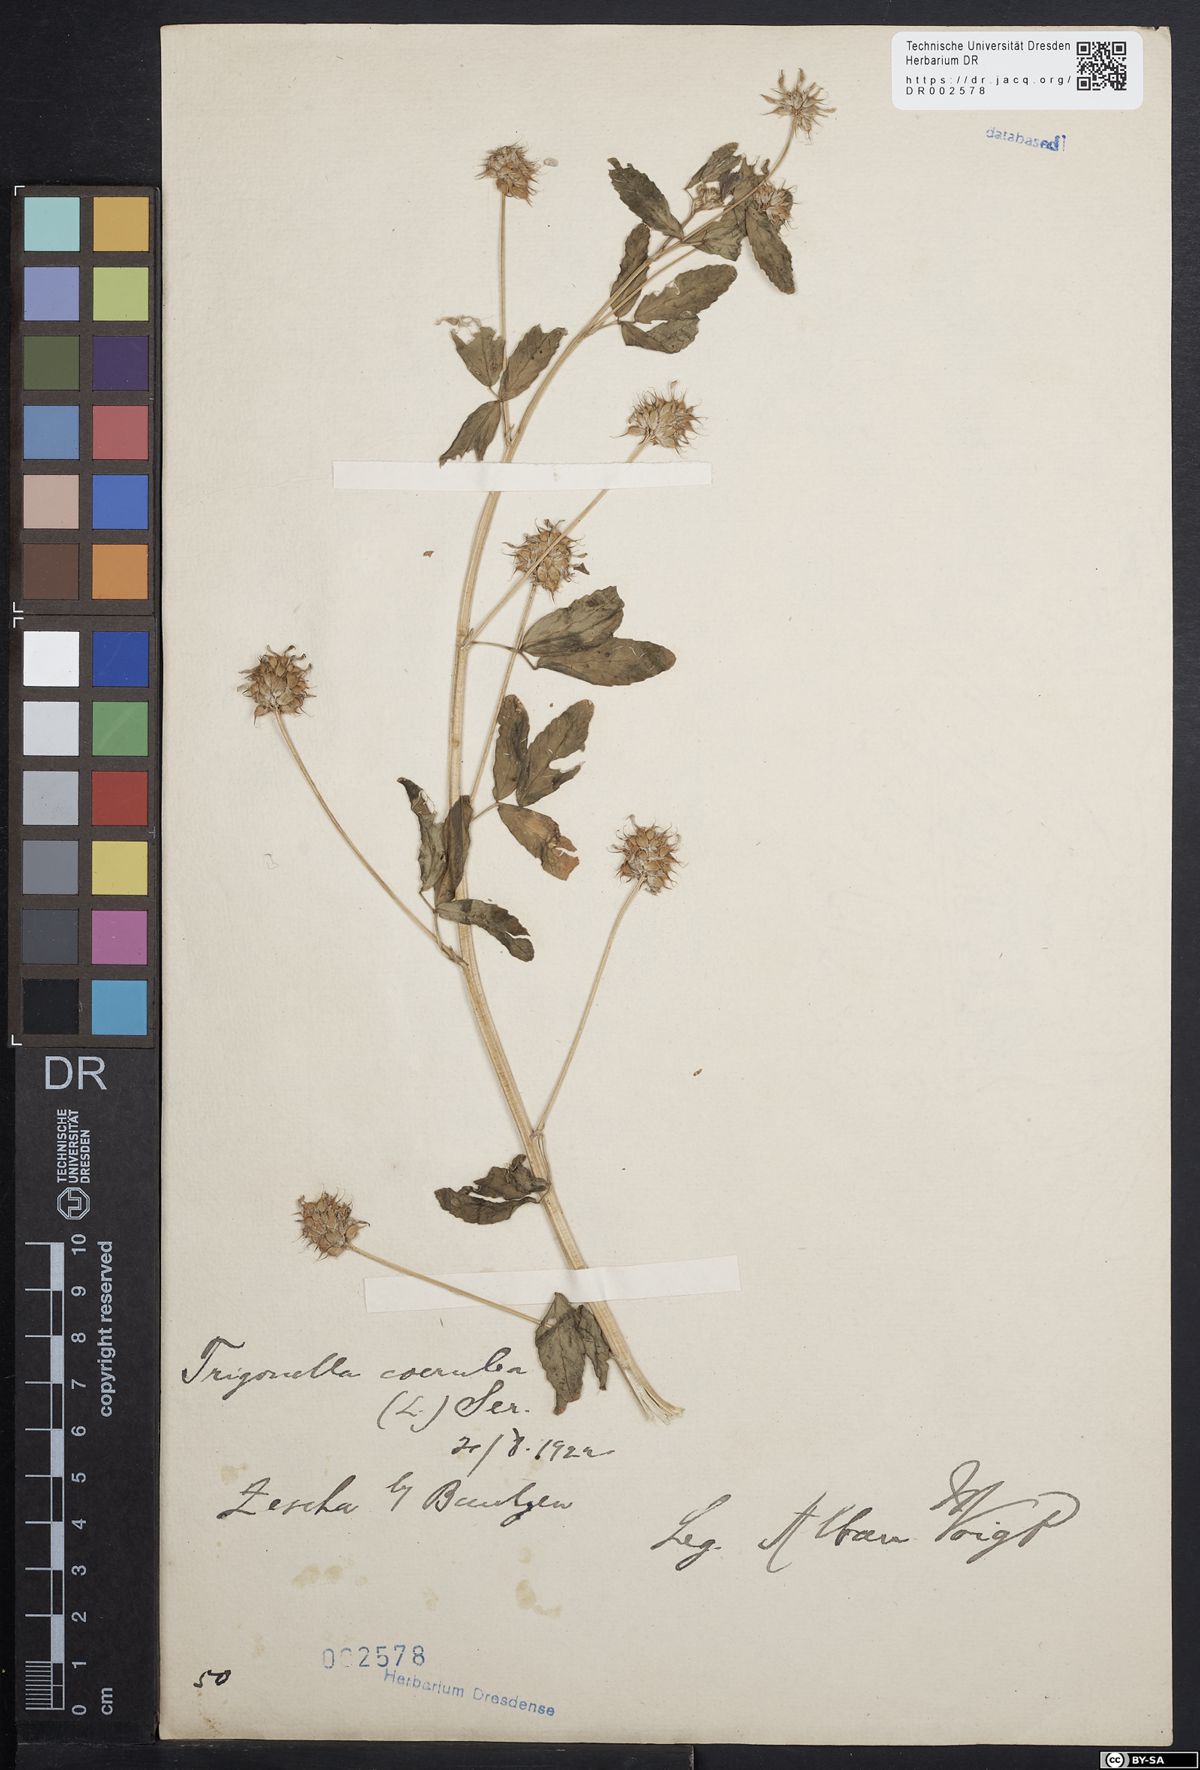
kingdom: Plantae
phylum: Tracheophyta
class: Magnoliopsida
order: Fabales
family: Fabaceae
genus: Trigonella
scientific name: Trigonella caerulea
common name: Blue fenugreek
